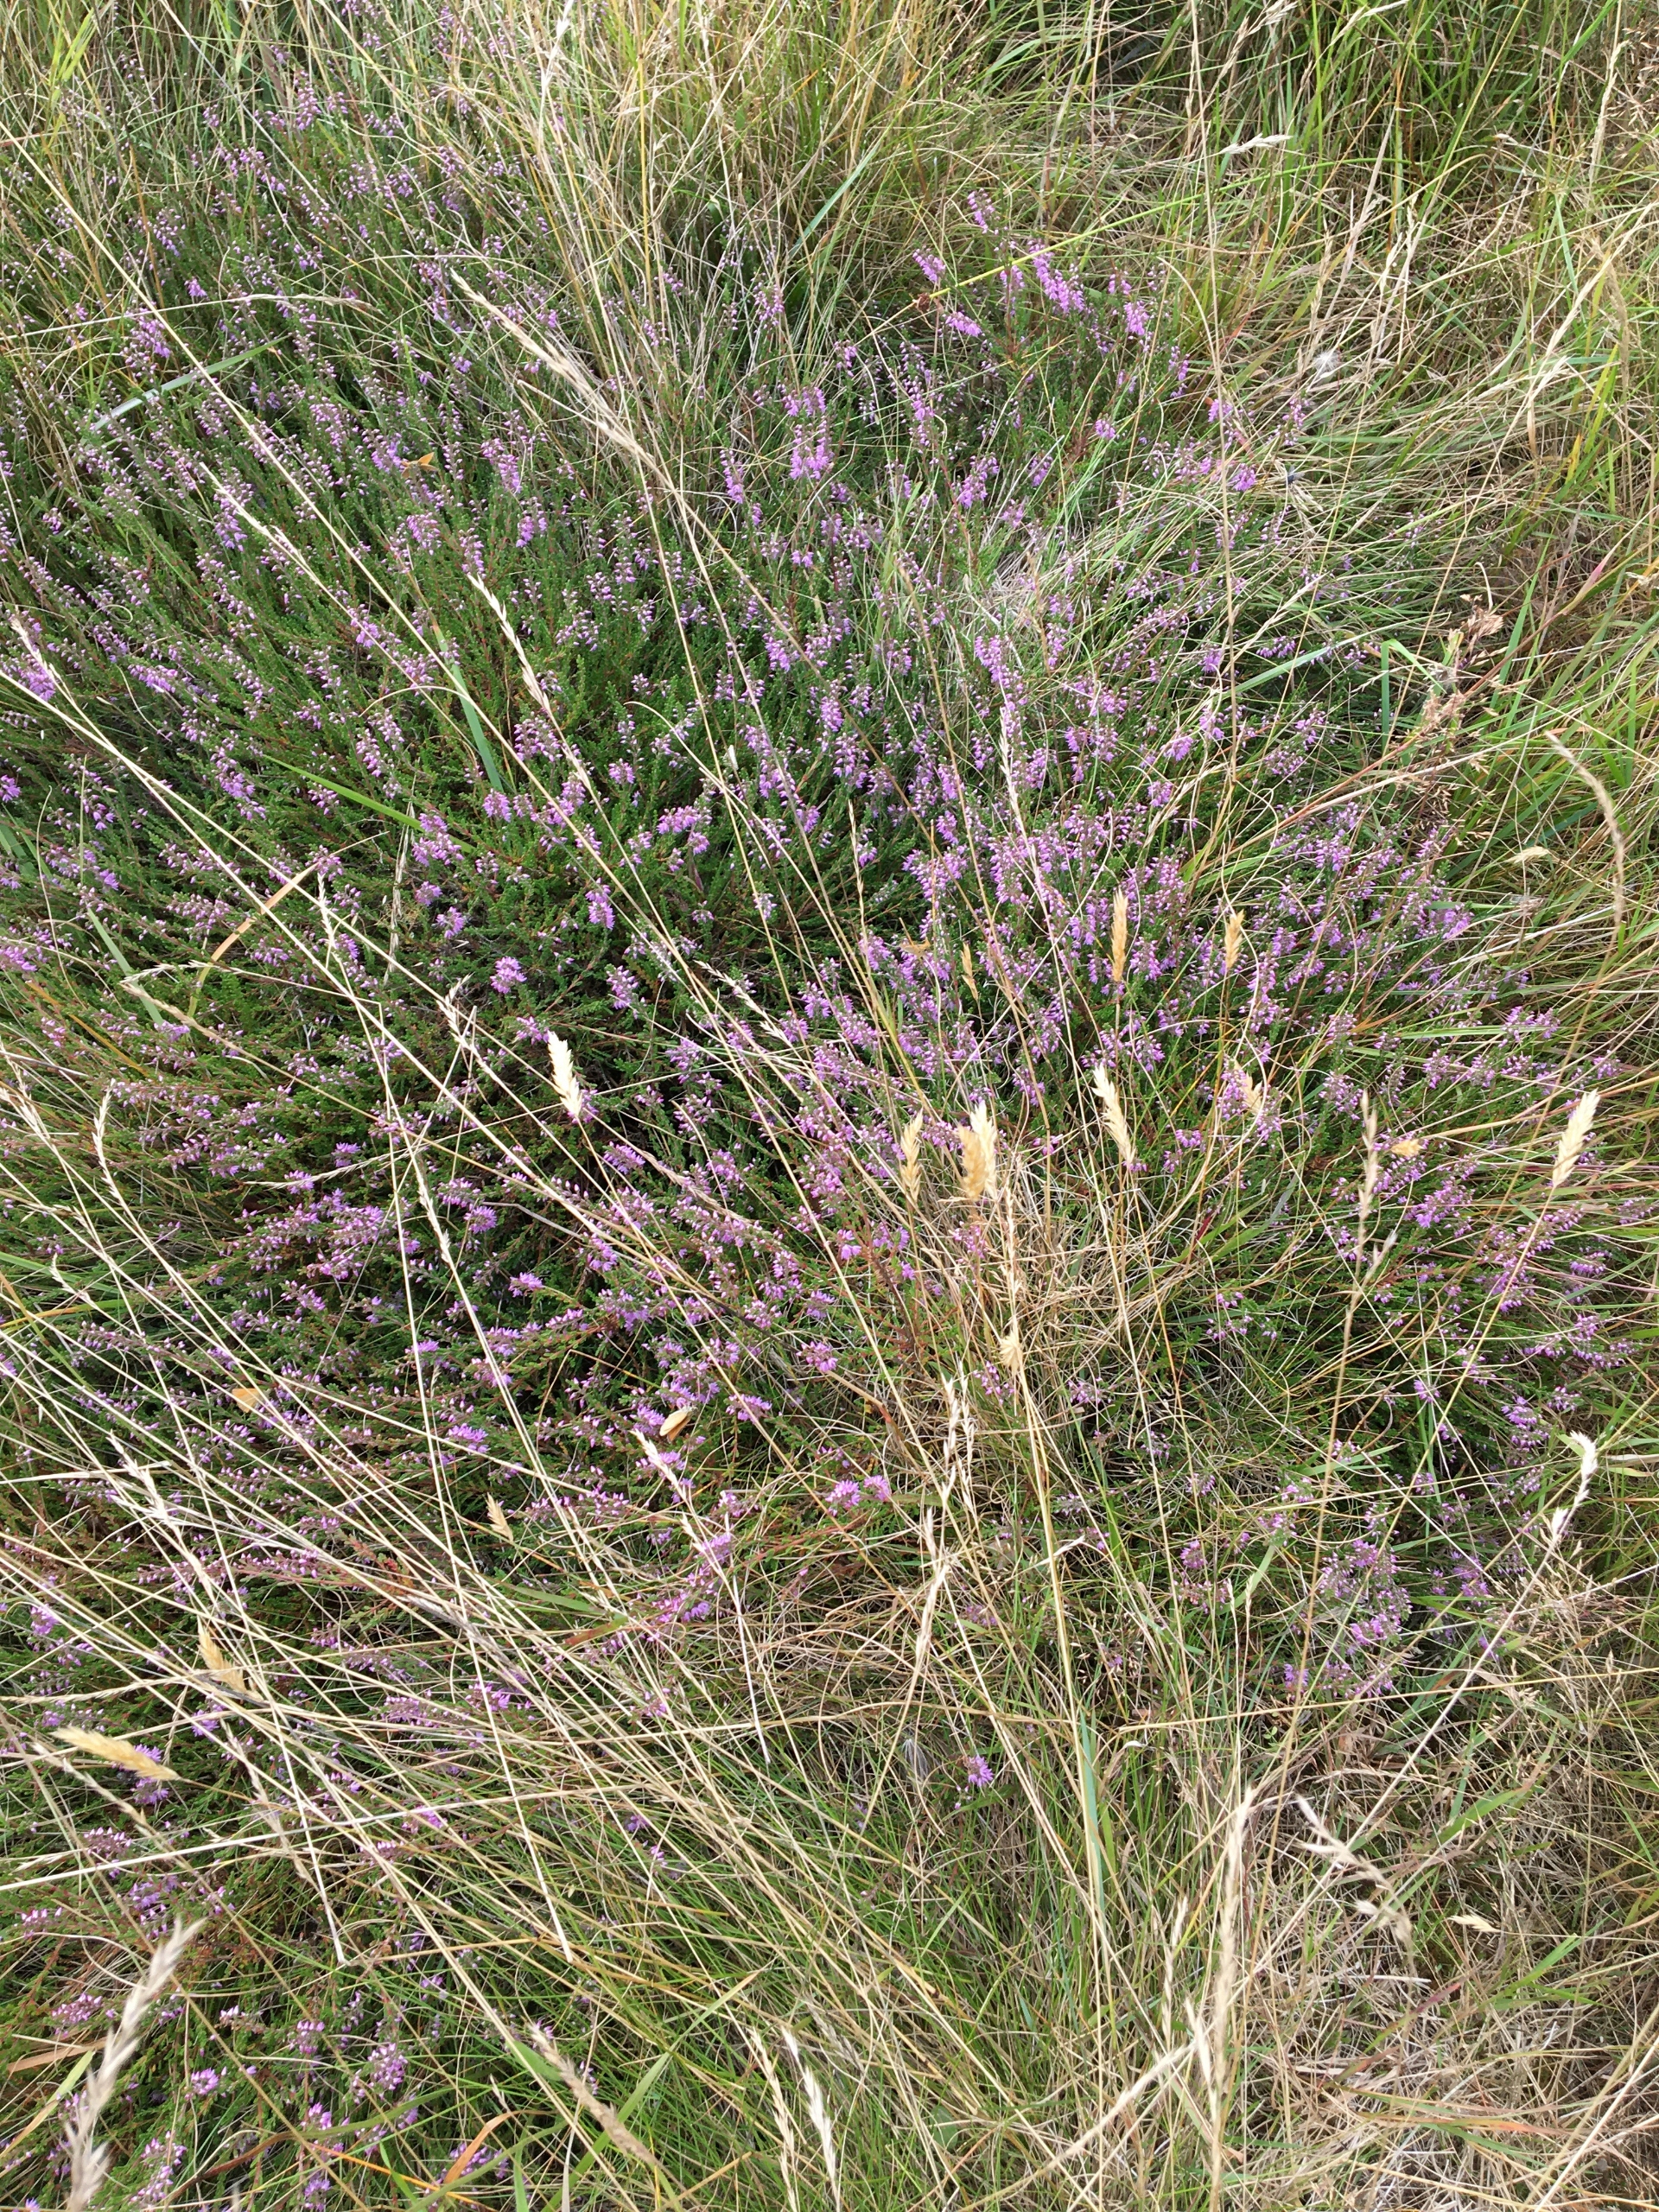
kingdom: Plantae
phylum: Tracheophyta
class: Magnoliopsida
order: Ericales
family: Ericaceae
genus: Calluna
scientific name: Calluna vulgaris
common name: Hedelyng
